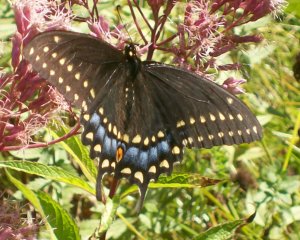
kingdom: Animalia
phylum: Arthropoda
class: Insecta
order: Lepidoptera
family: Papilionidae
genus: Papilio
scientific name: Papilio polyxenes
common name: Black Swallowtail
